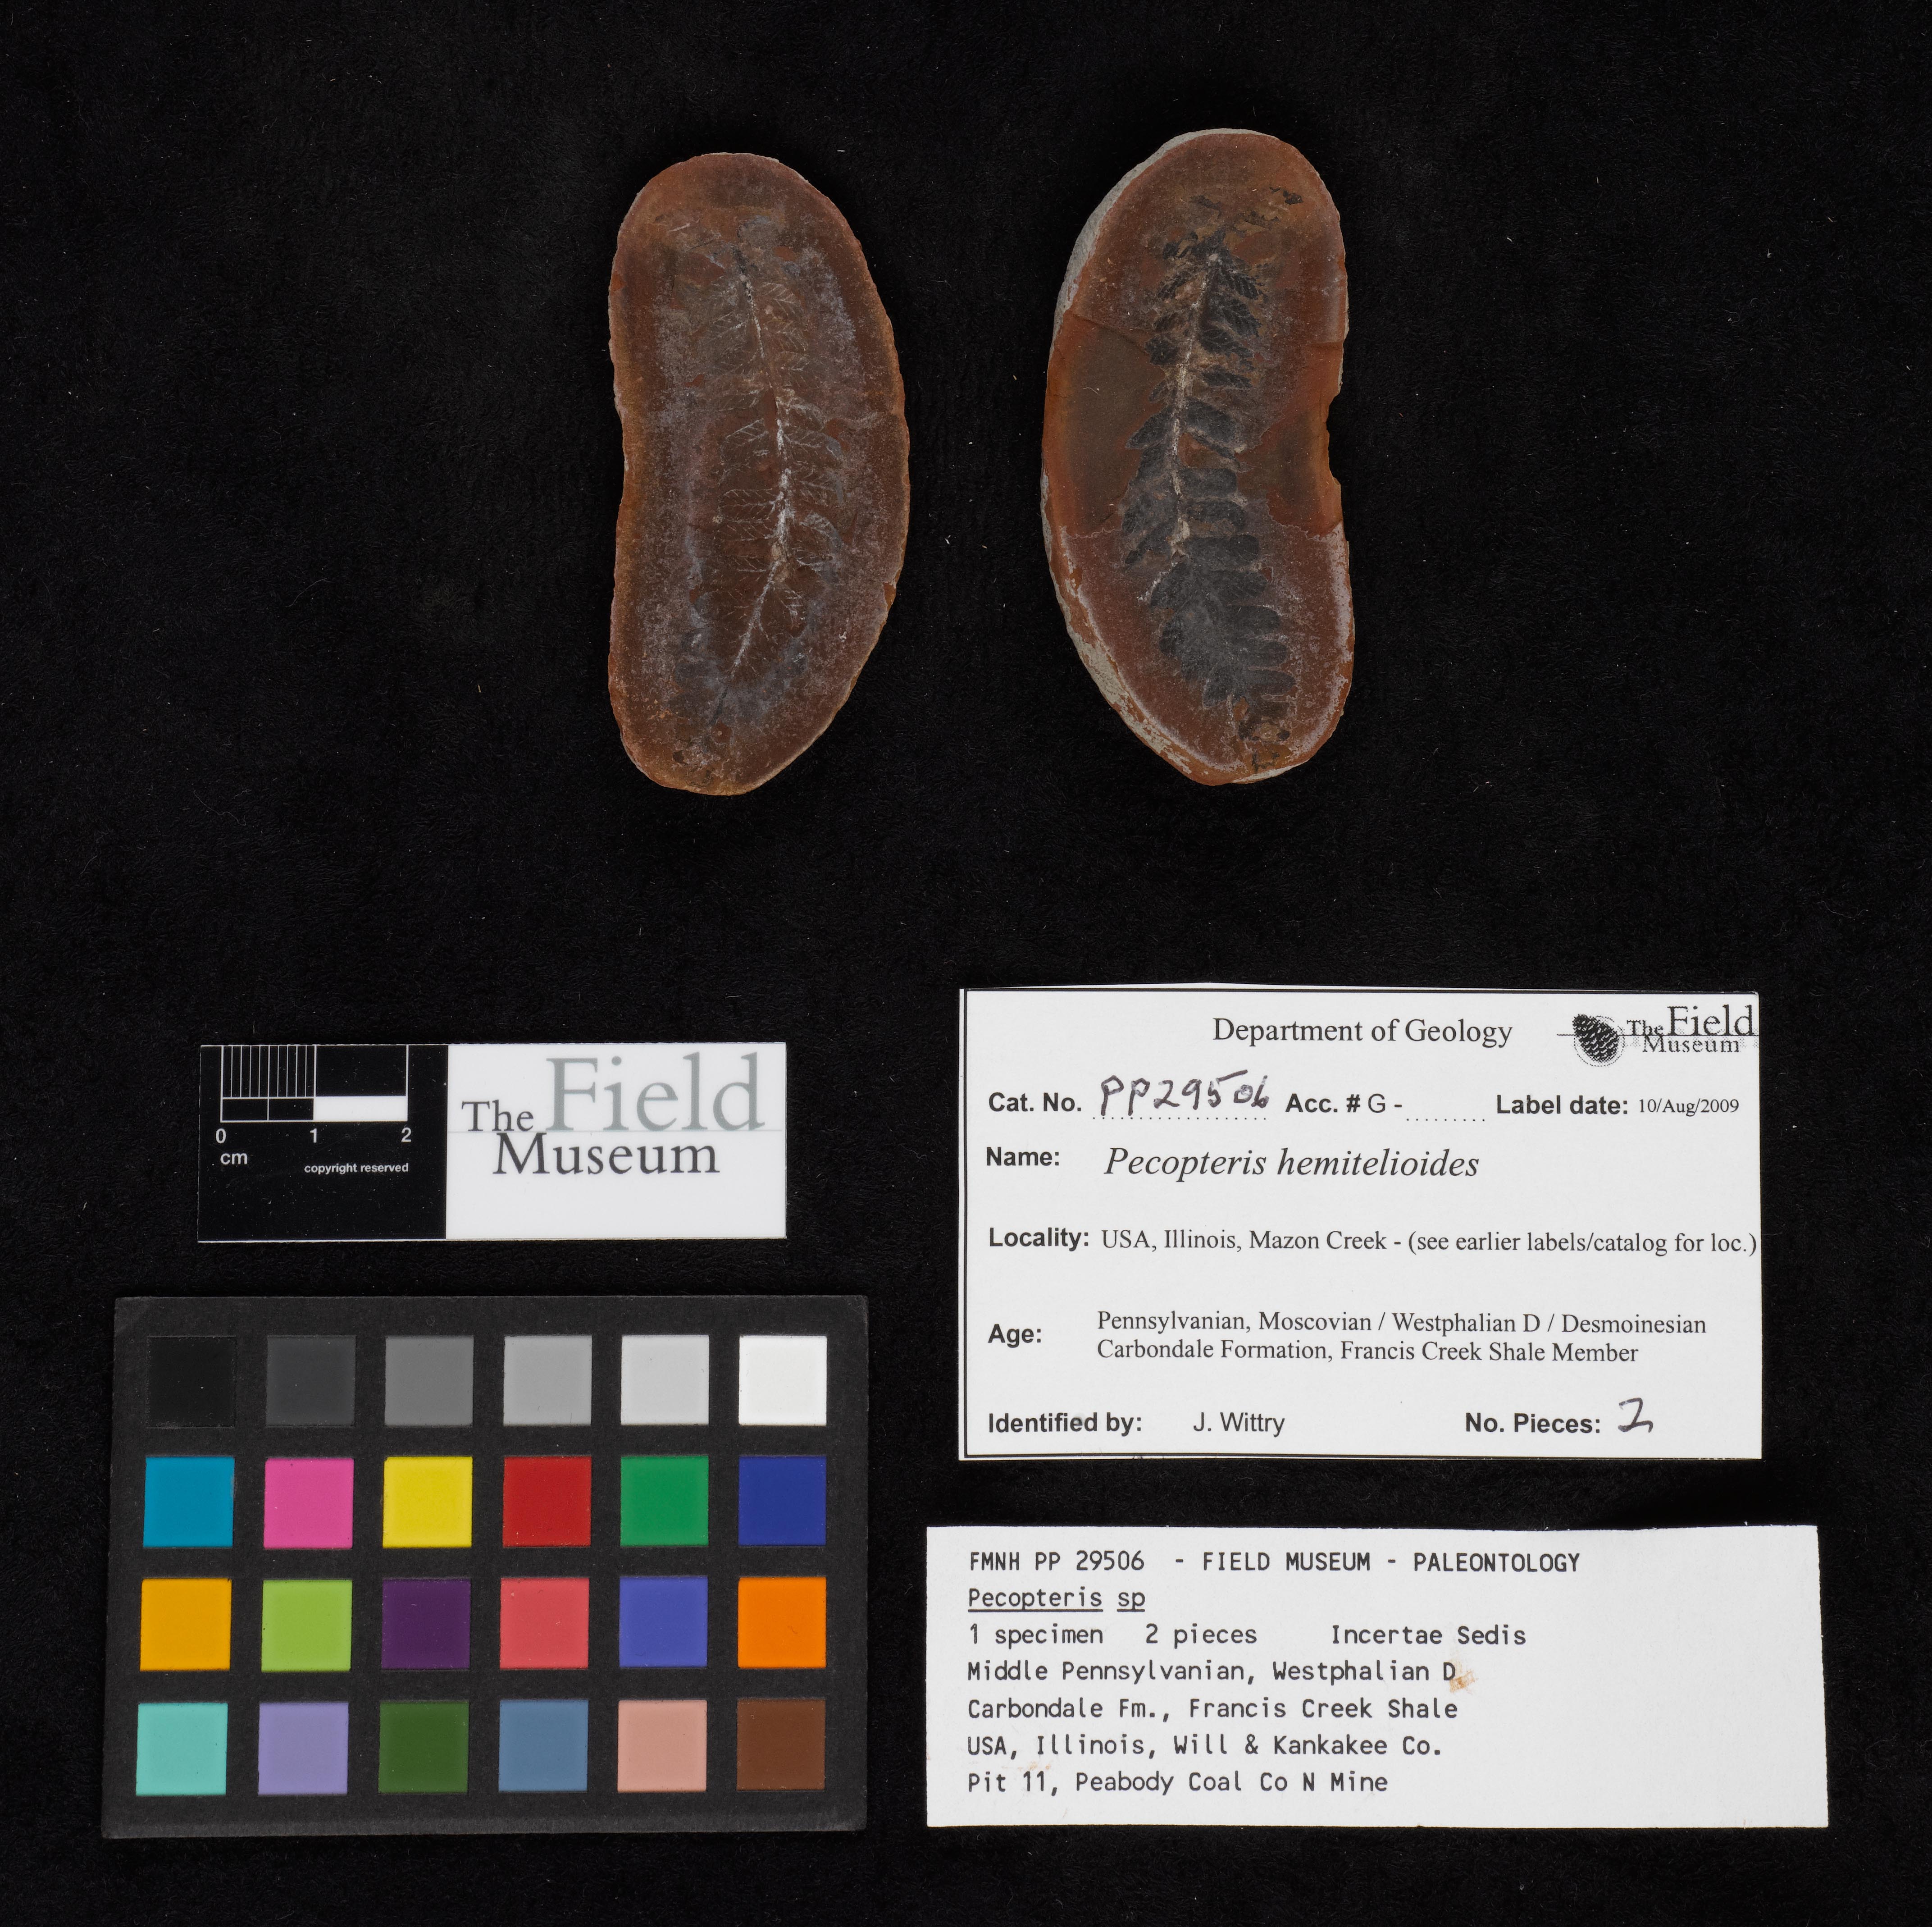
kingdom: Plantae
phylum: Tracheophyta
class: Polypodiopsida
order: Marattiales
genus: Cyathocarpus
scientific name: Cyathocarpus
